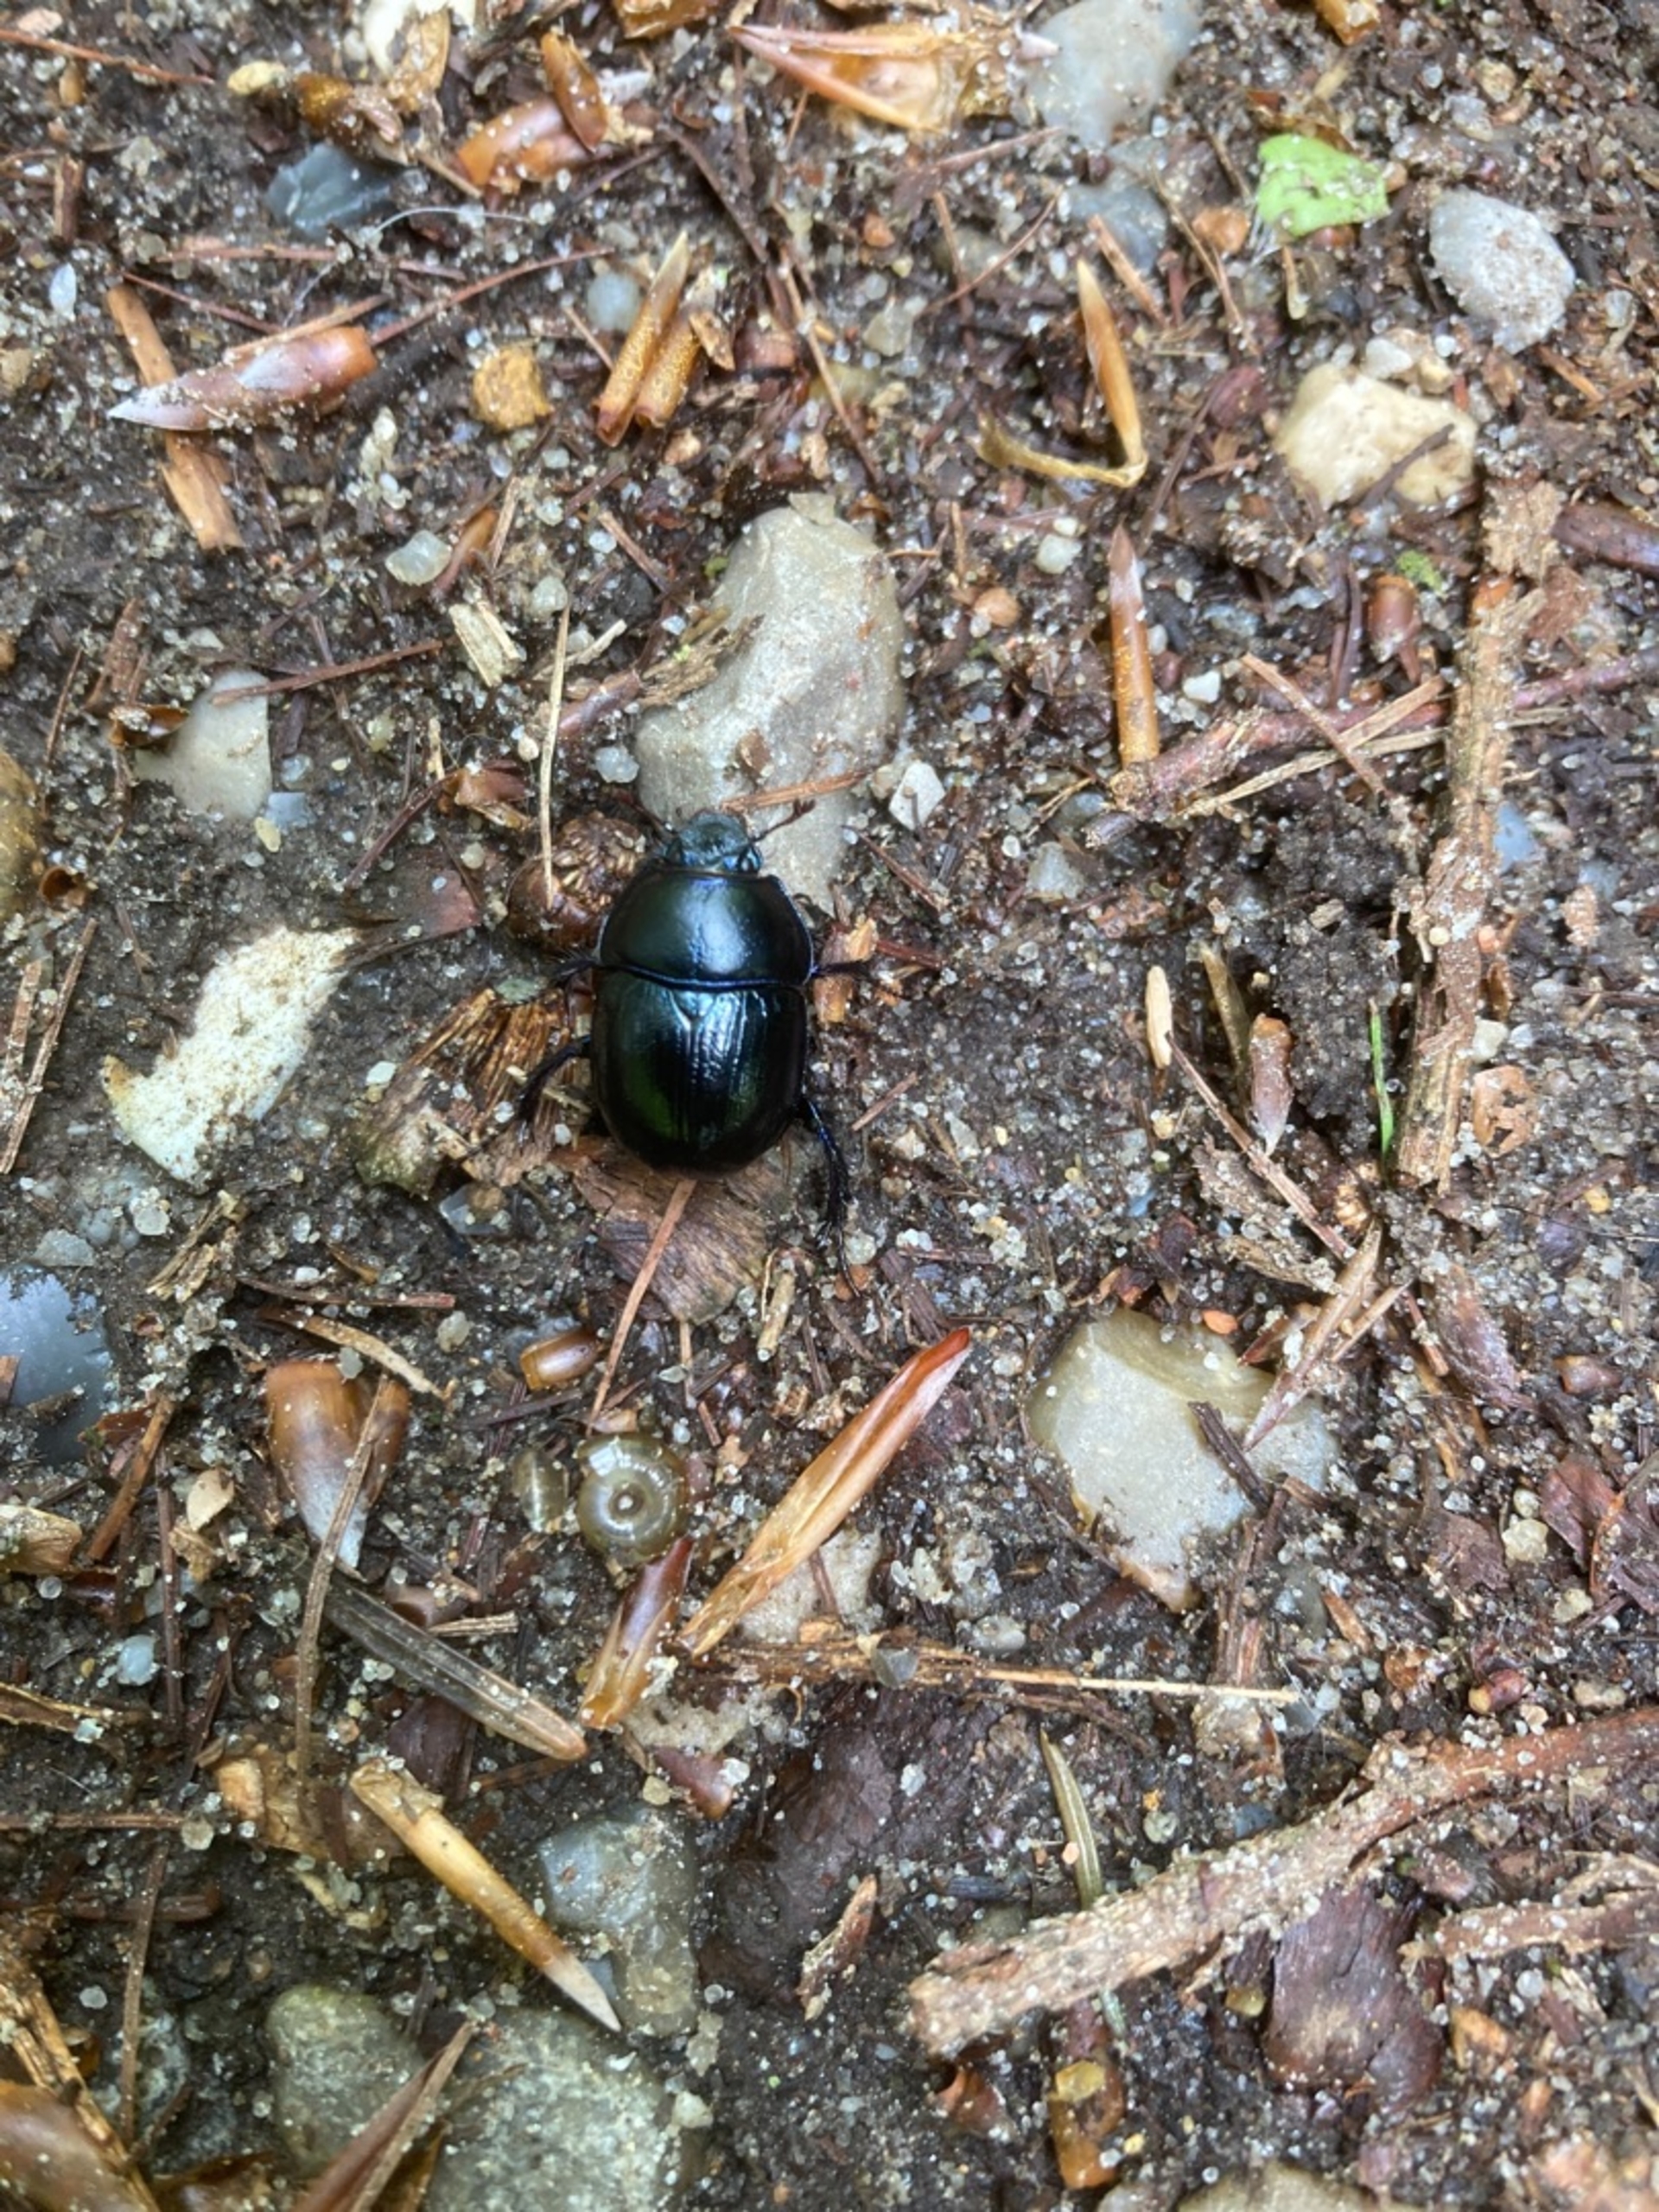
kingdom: Animalia
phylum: Arthropoda
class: Insecta
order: Coleoptera
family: Geotrupidae
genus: Anoplotrupes
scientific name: Anoplotrupes stercorosus
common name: Skovskarnbasse
